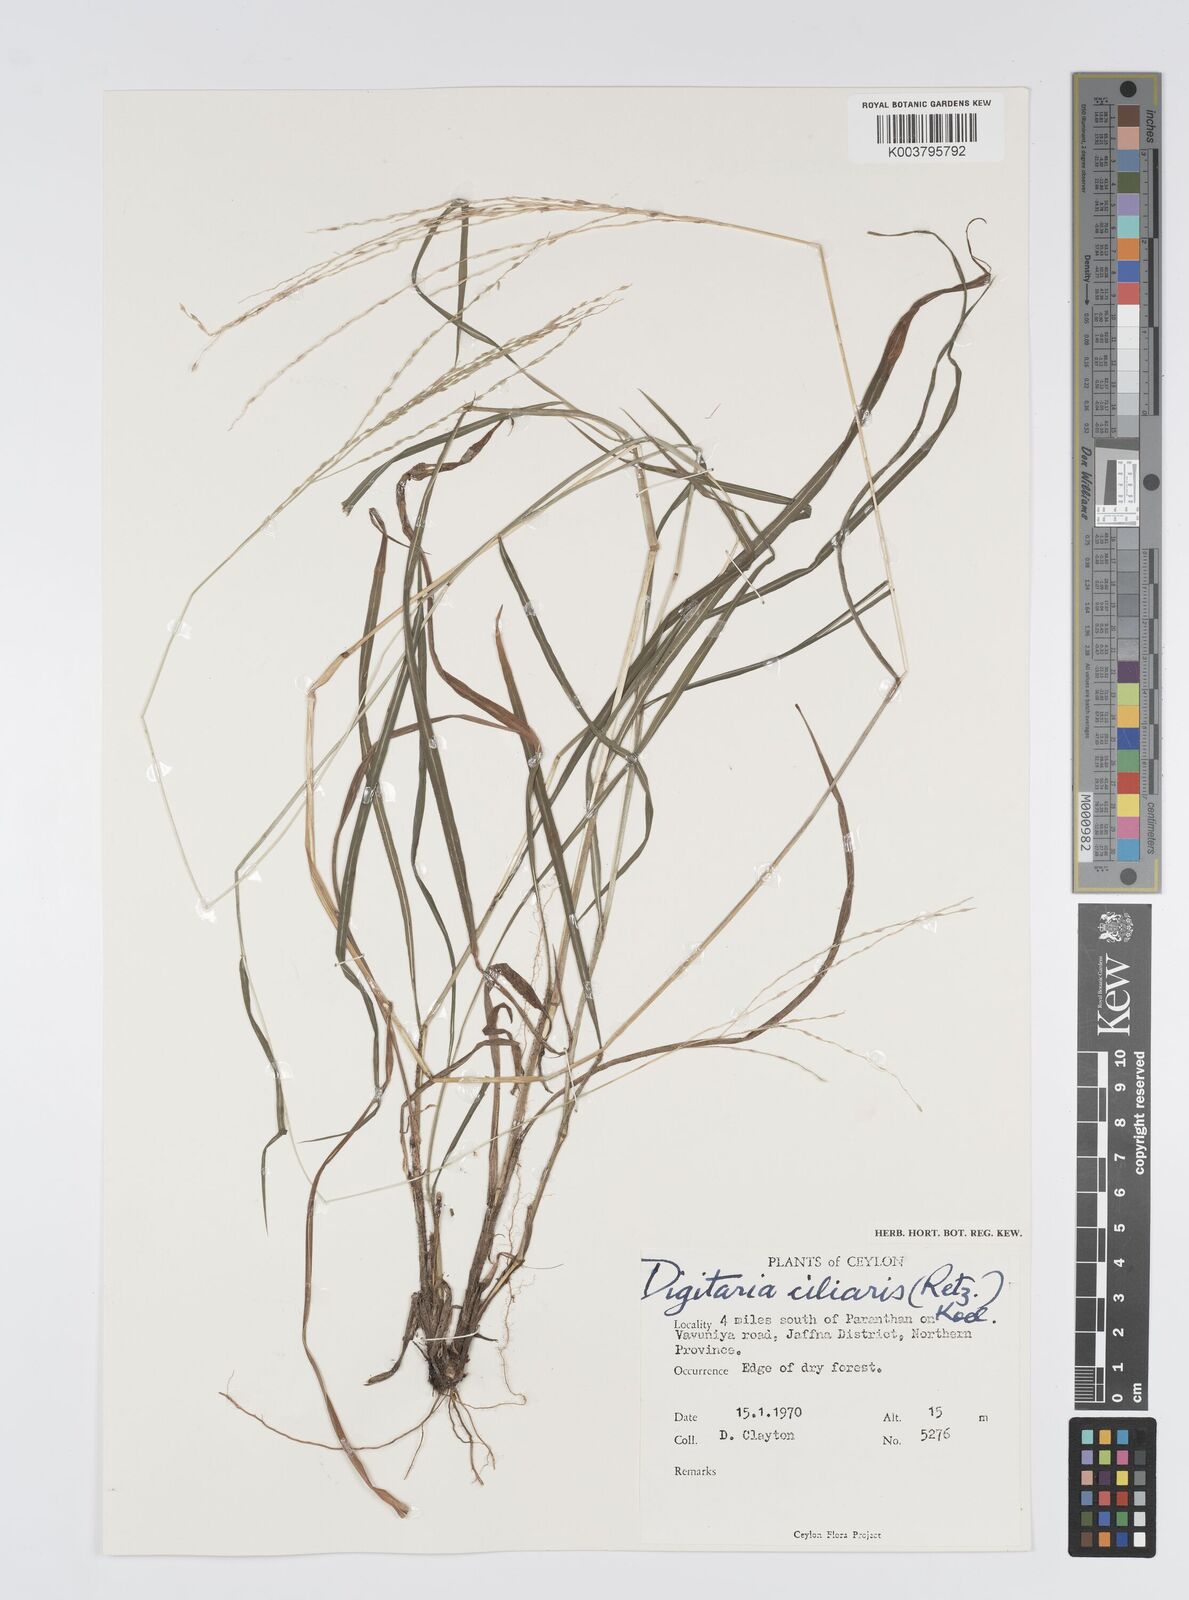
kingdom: Plantae
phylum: Tracheophyta
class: Liliopsida
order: Poales
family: Poaceae
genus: Digitaria
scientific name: Digitaria junghuhniana
